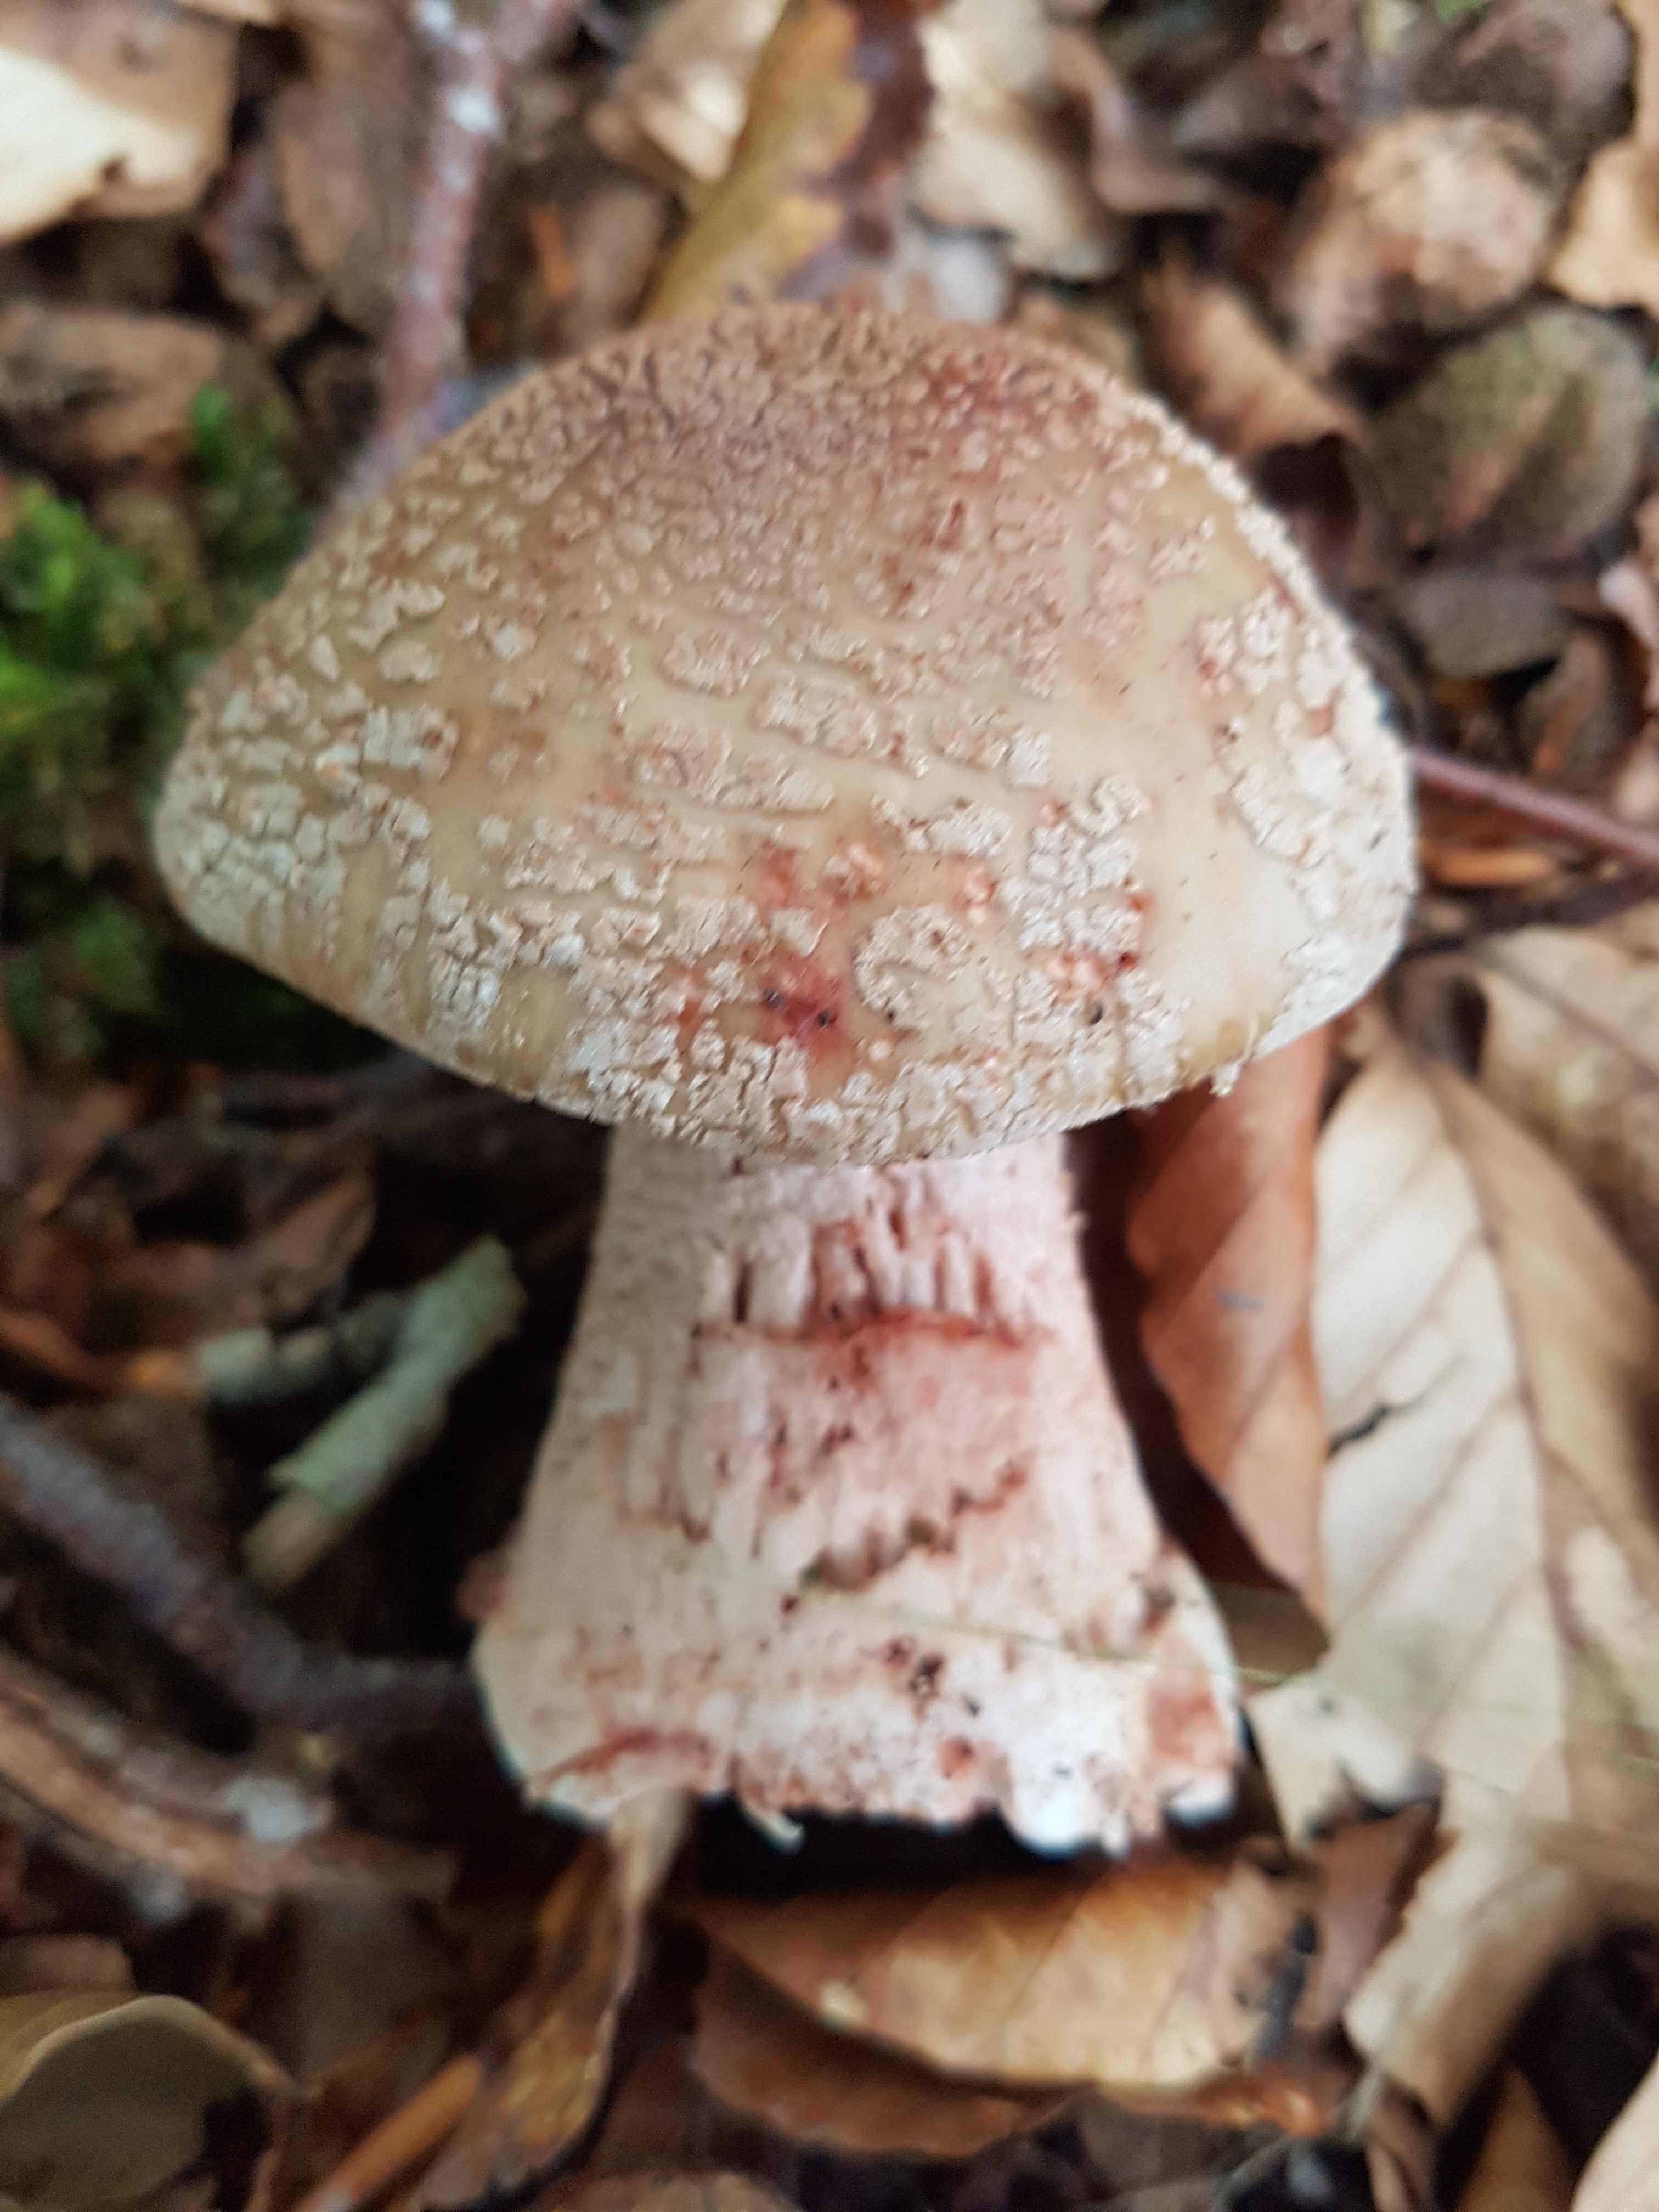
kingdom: Fungi
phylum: Basidiomycota
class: Agaricomycetes
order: Agaricales
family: Amanitaceae
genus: Amanita
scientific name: Amanita rubescens
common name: rødmende fluesvamp
